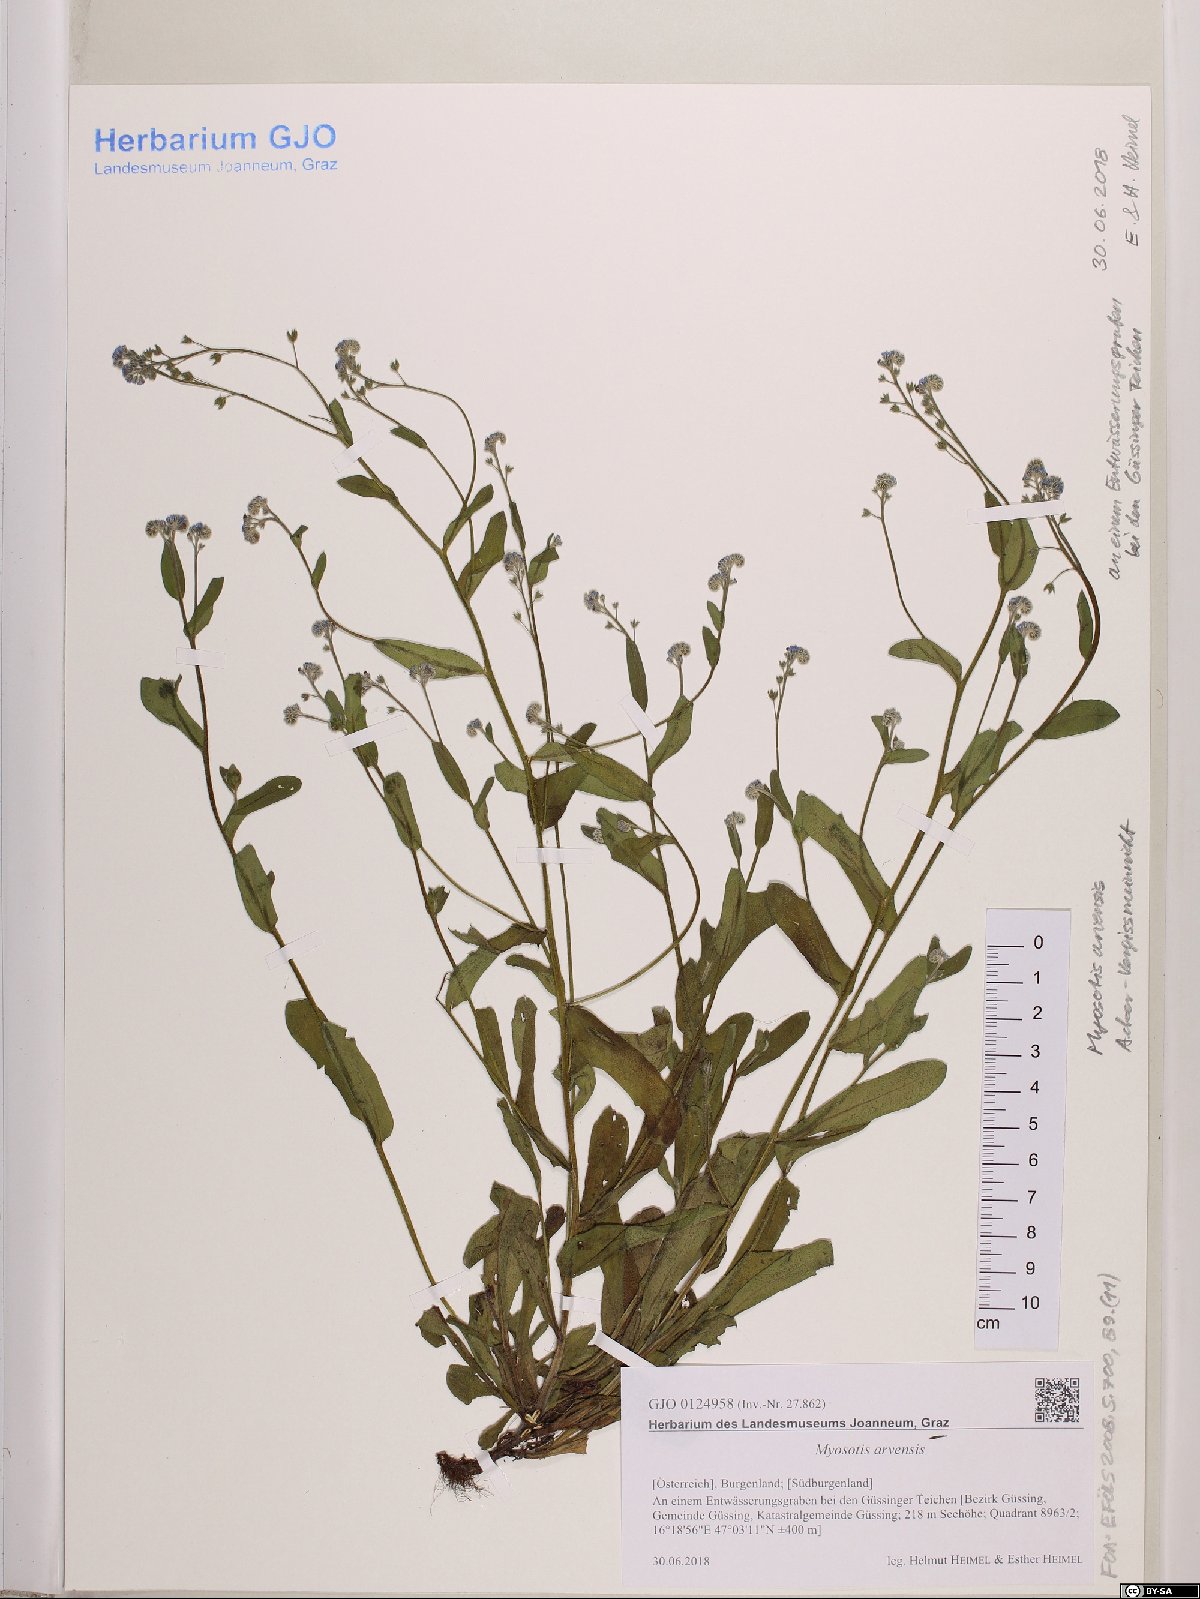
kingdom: Plantae
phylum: Tracheophyta
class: Magnoliopsida
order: Boraginales
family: Boraginaceae
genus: Myosotis
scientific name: Myosotis arvensis
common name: Field forget-me-not
